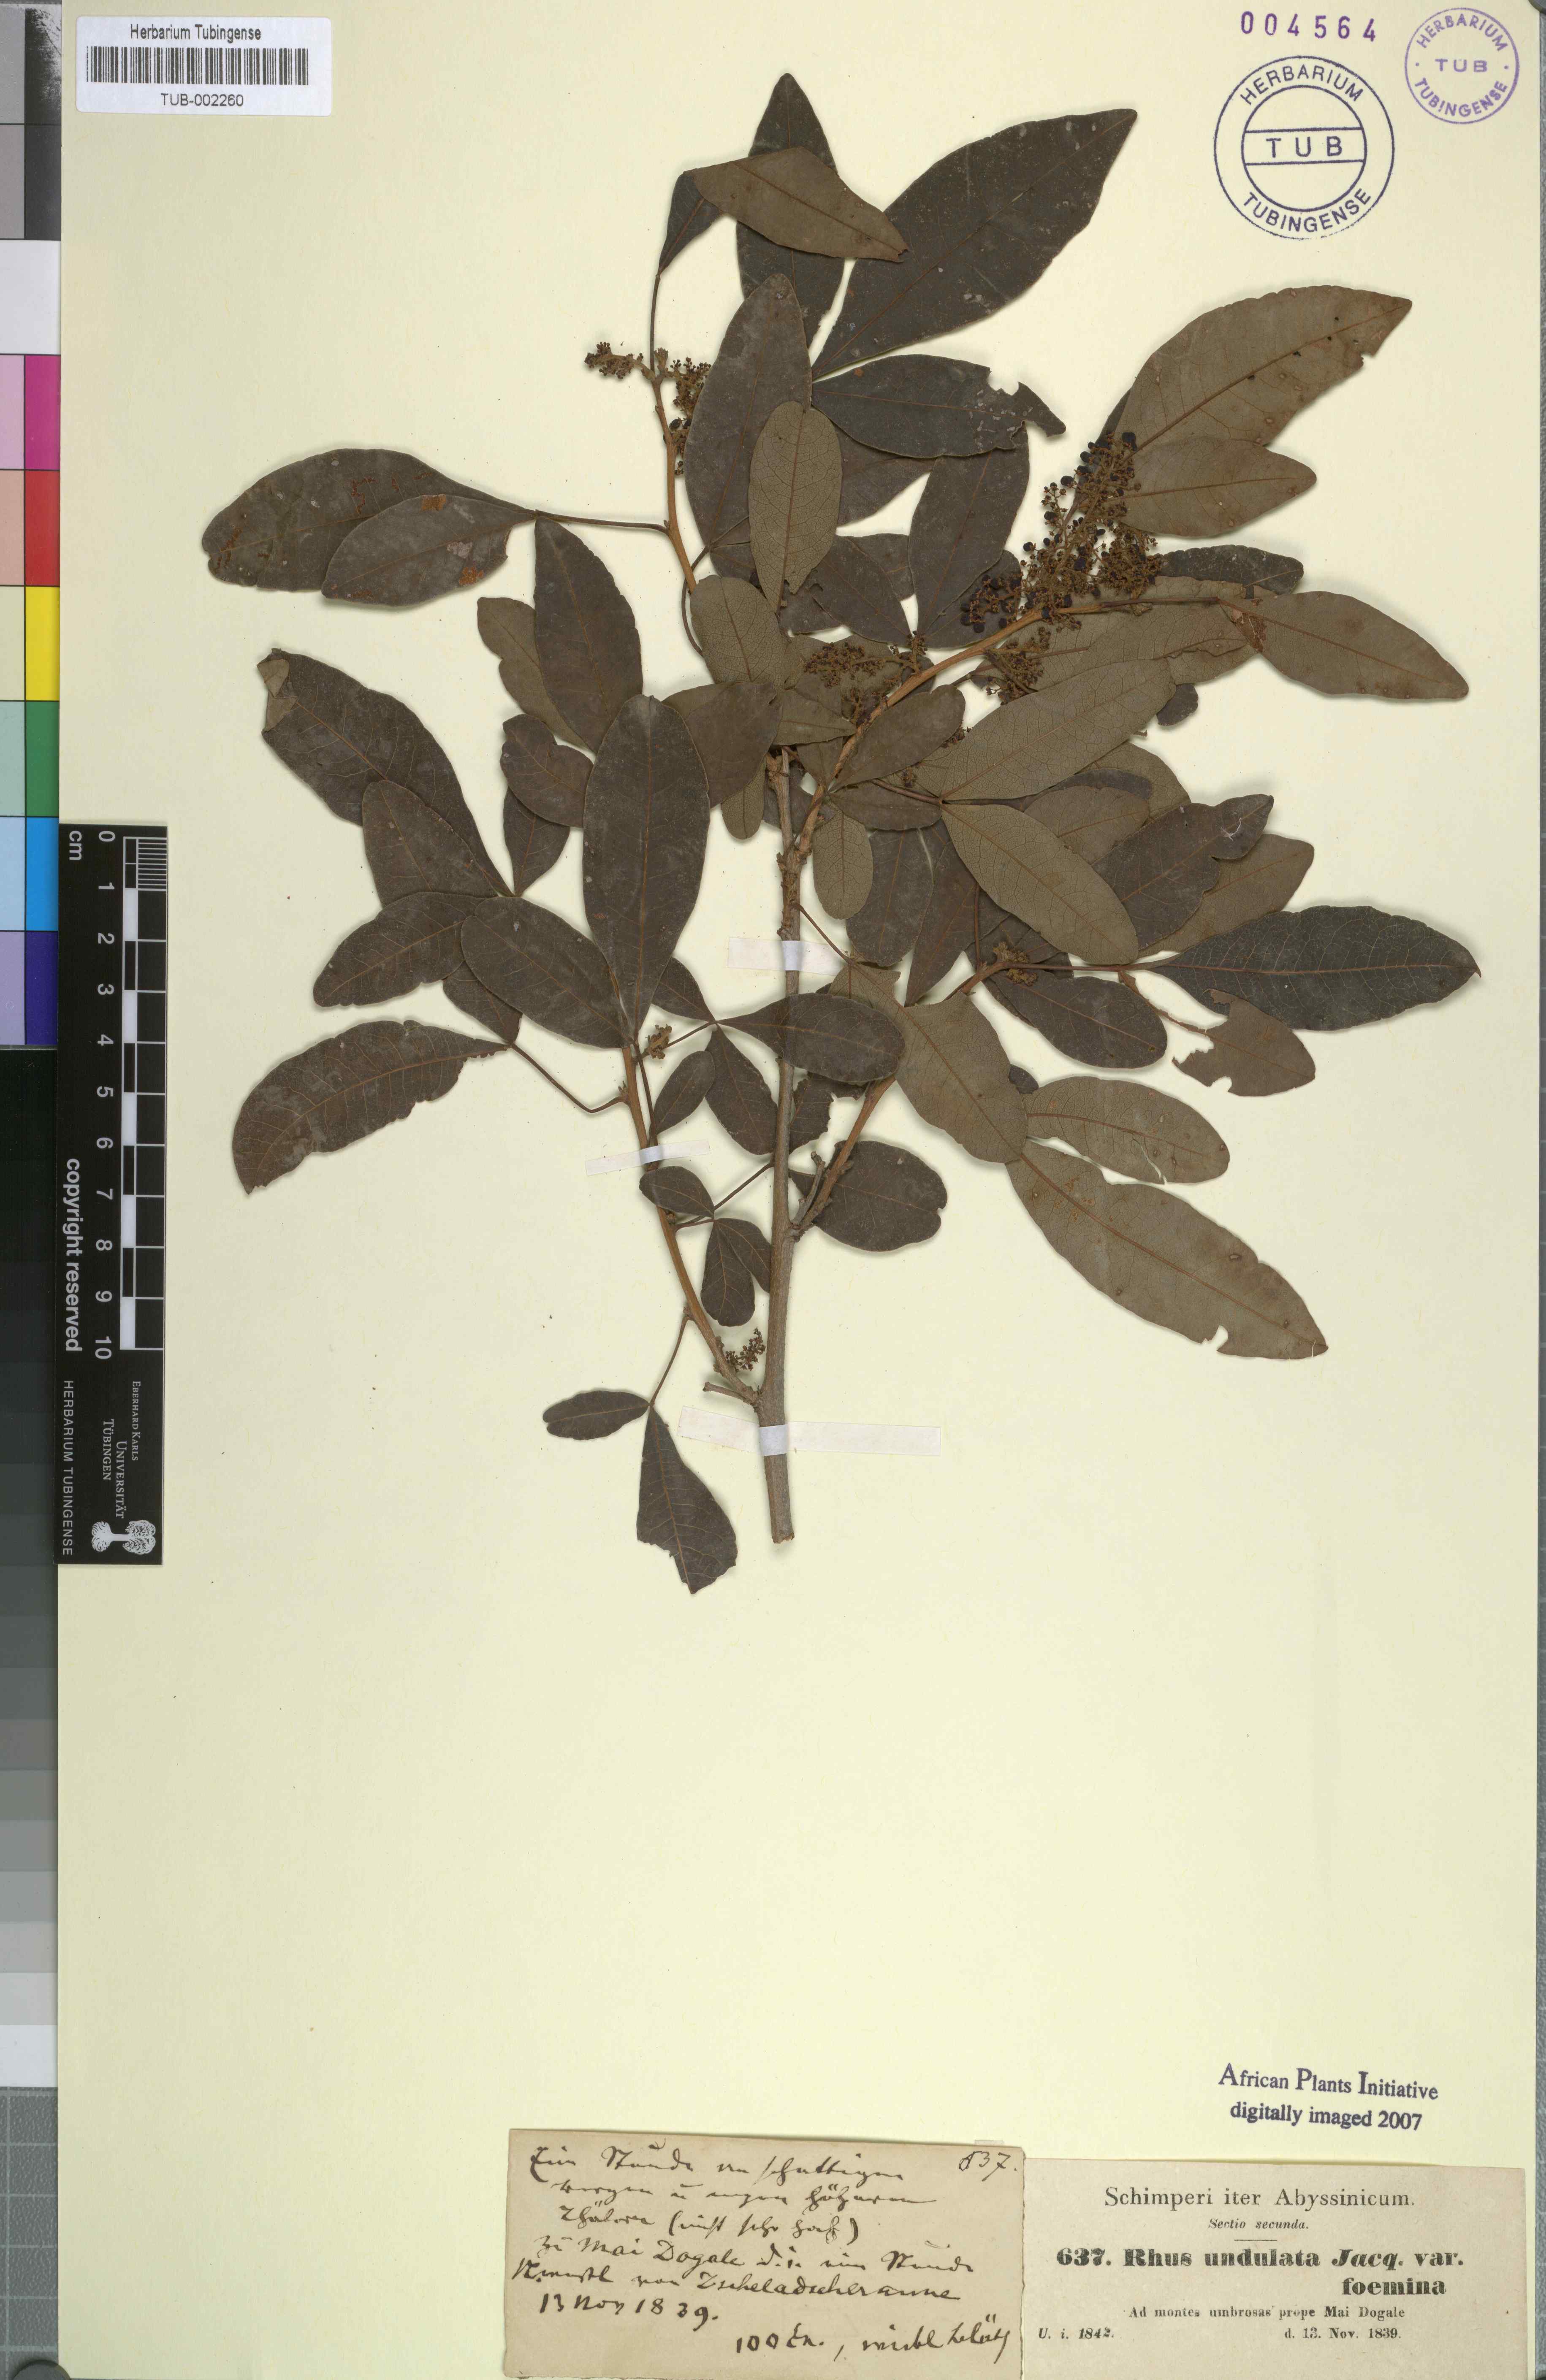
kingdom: Plantae
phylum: Tracheophyta
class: Magnoliopsida
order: Sapindales
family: Anacardiaceae
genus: Searsia
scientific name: Searsia undulata
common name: Namaqua kunibush
